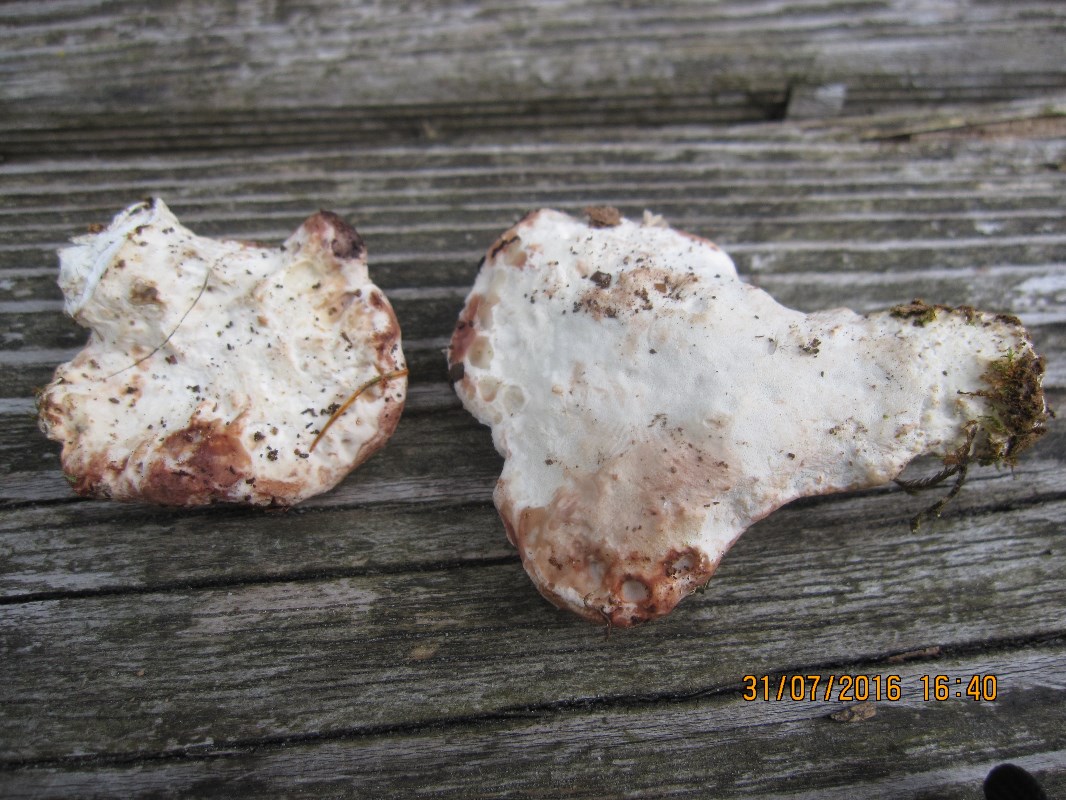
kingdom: Fungi
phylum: Basidiomycota
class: Agaricomycetes
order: Polyporales
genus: Calcipostia
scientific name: Calcipostia guttulata
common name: dråbe-kødporesvamp
